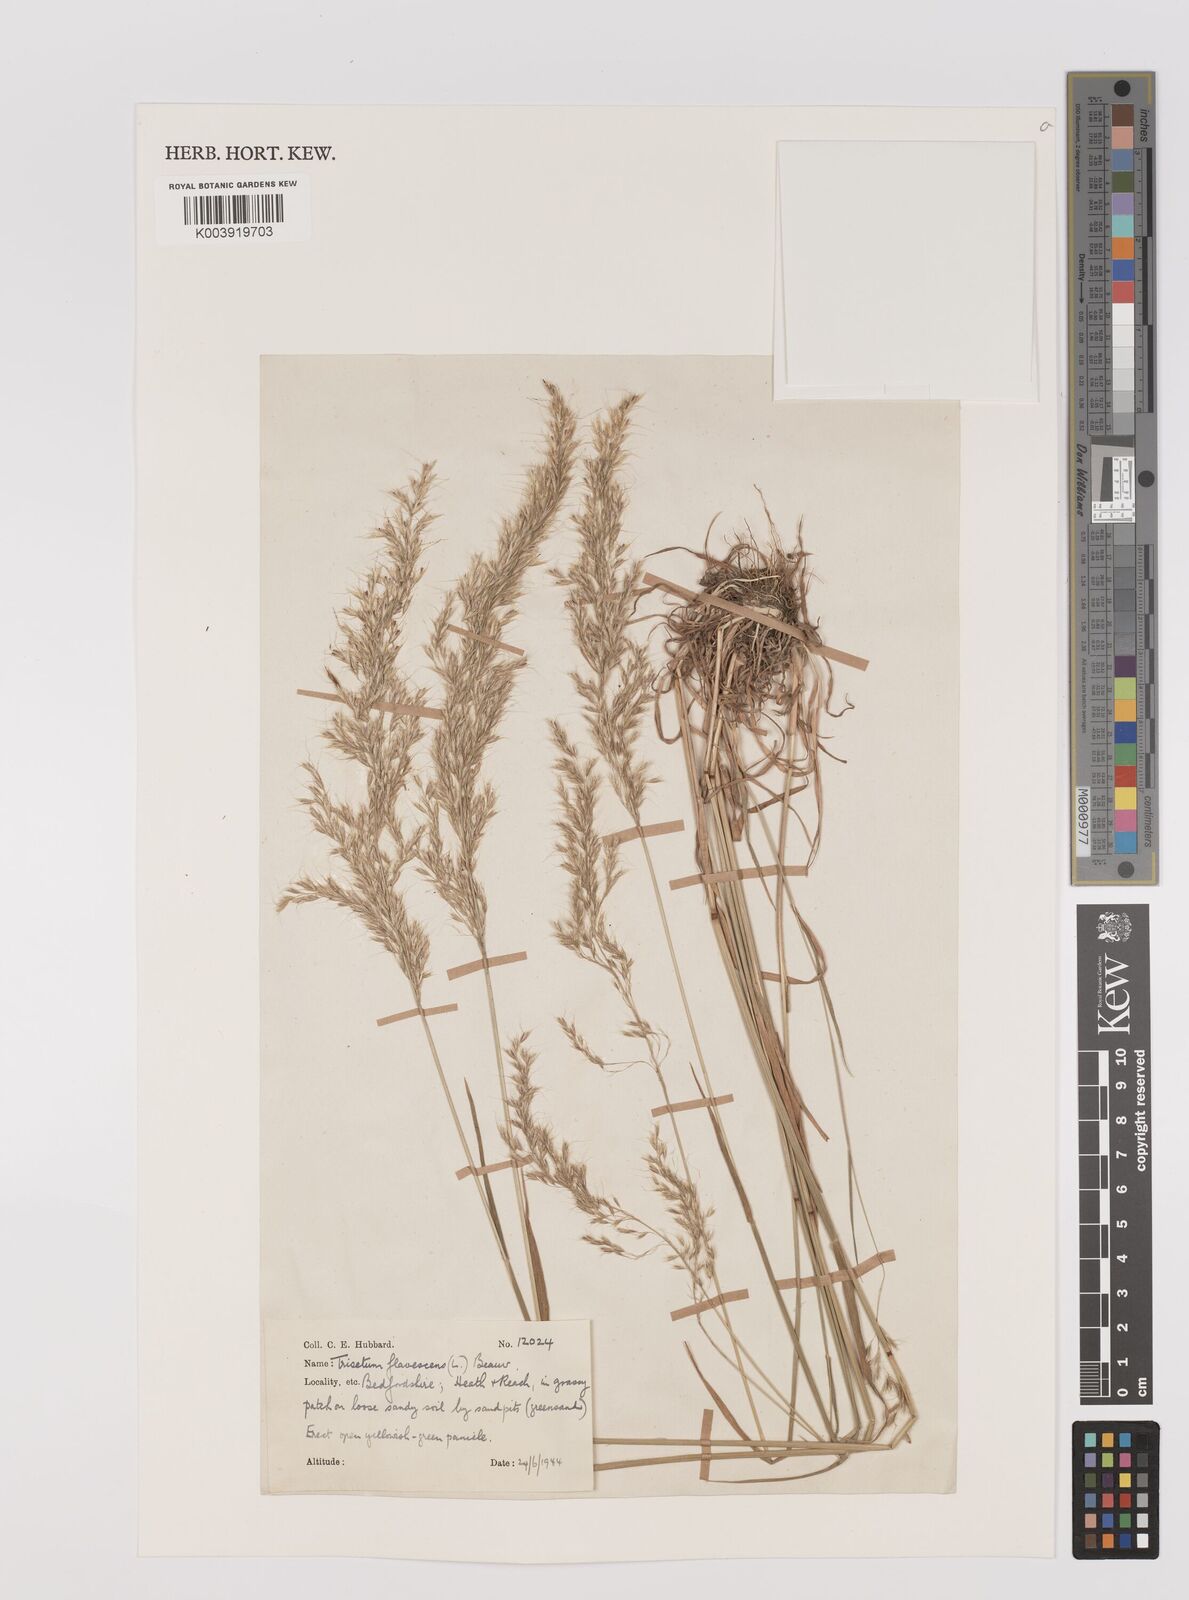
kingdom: Plantae
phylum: Tracheophyta
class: Liliopsida
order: Poales
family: Poaceae
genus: Trisetum
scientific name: Trisetum flavescens
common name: Yellow oat-grass
